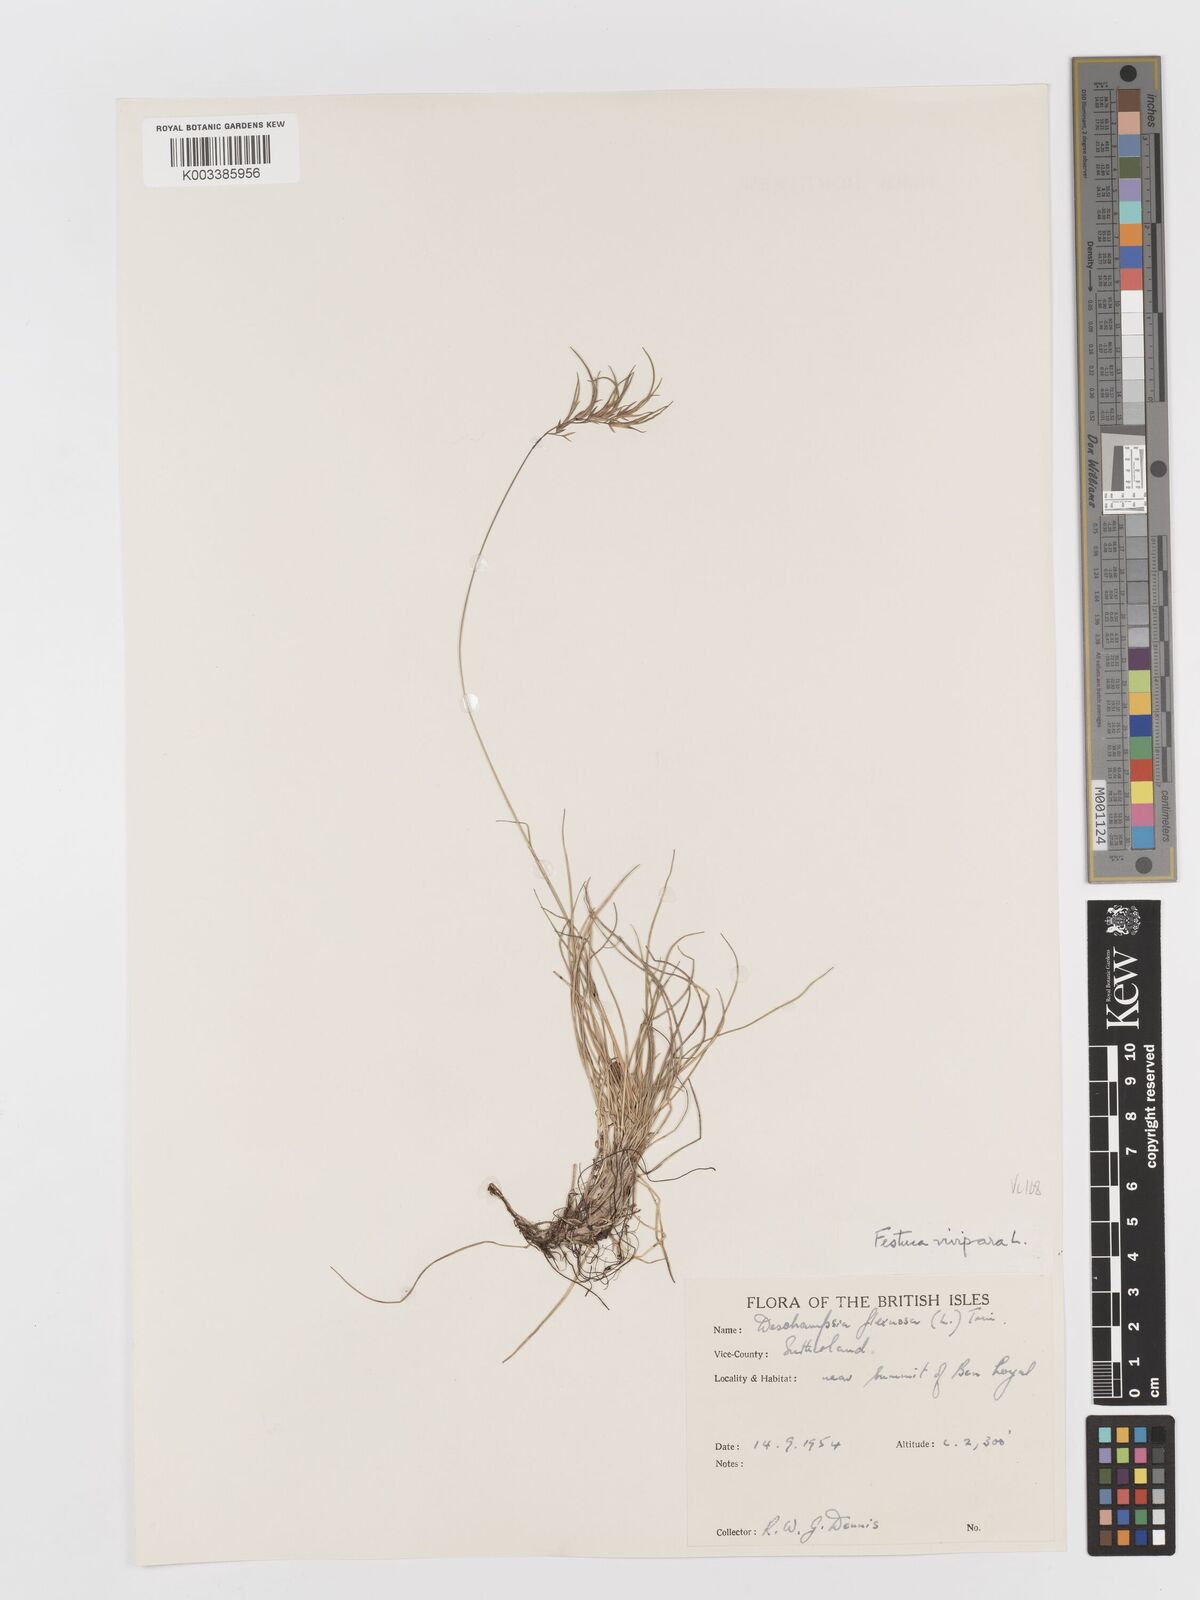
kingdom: Plantae
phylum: Tracheophyta
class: Liliopsida
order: Poales
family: Poaceae
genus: Avenella
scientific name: Avenella flexuosa
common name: Wavy hairgrass
